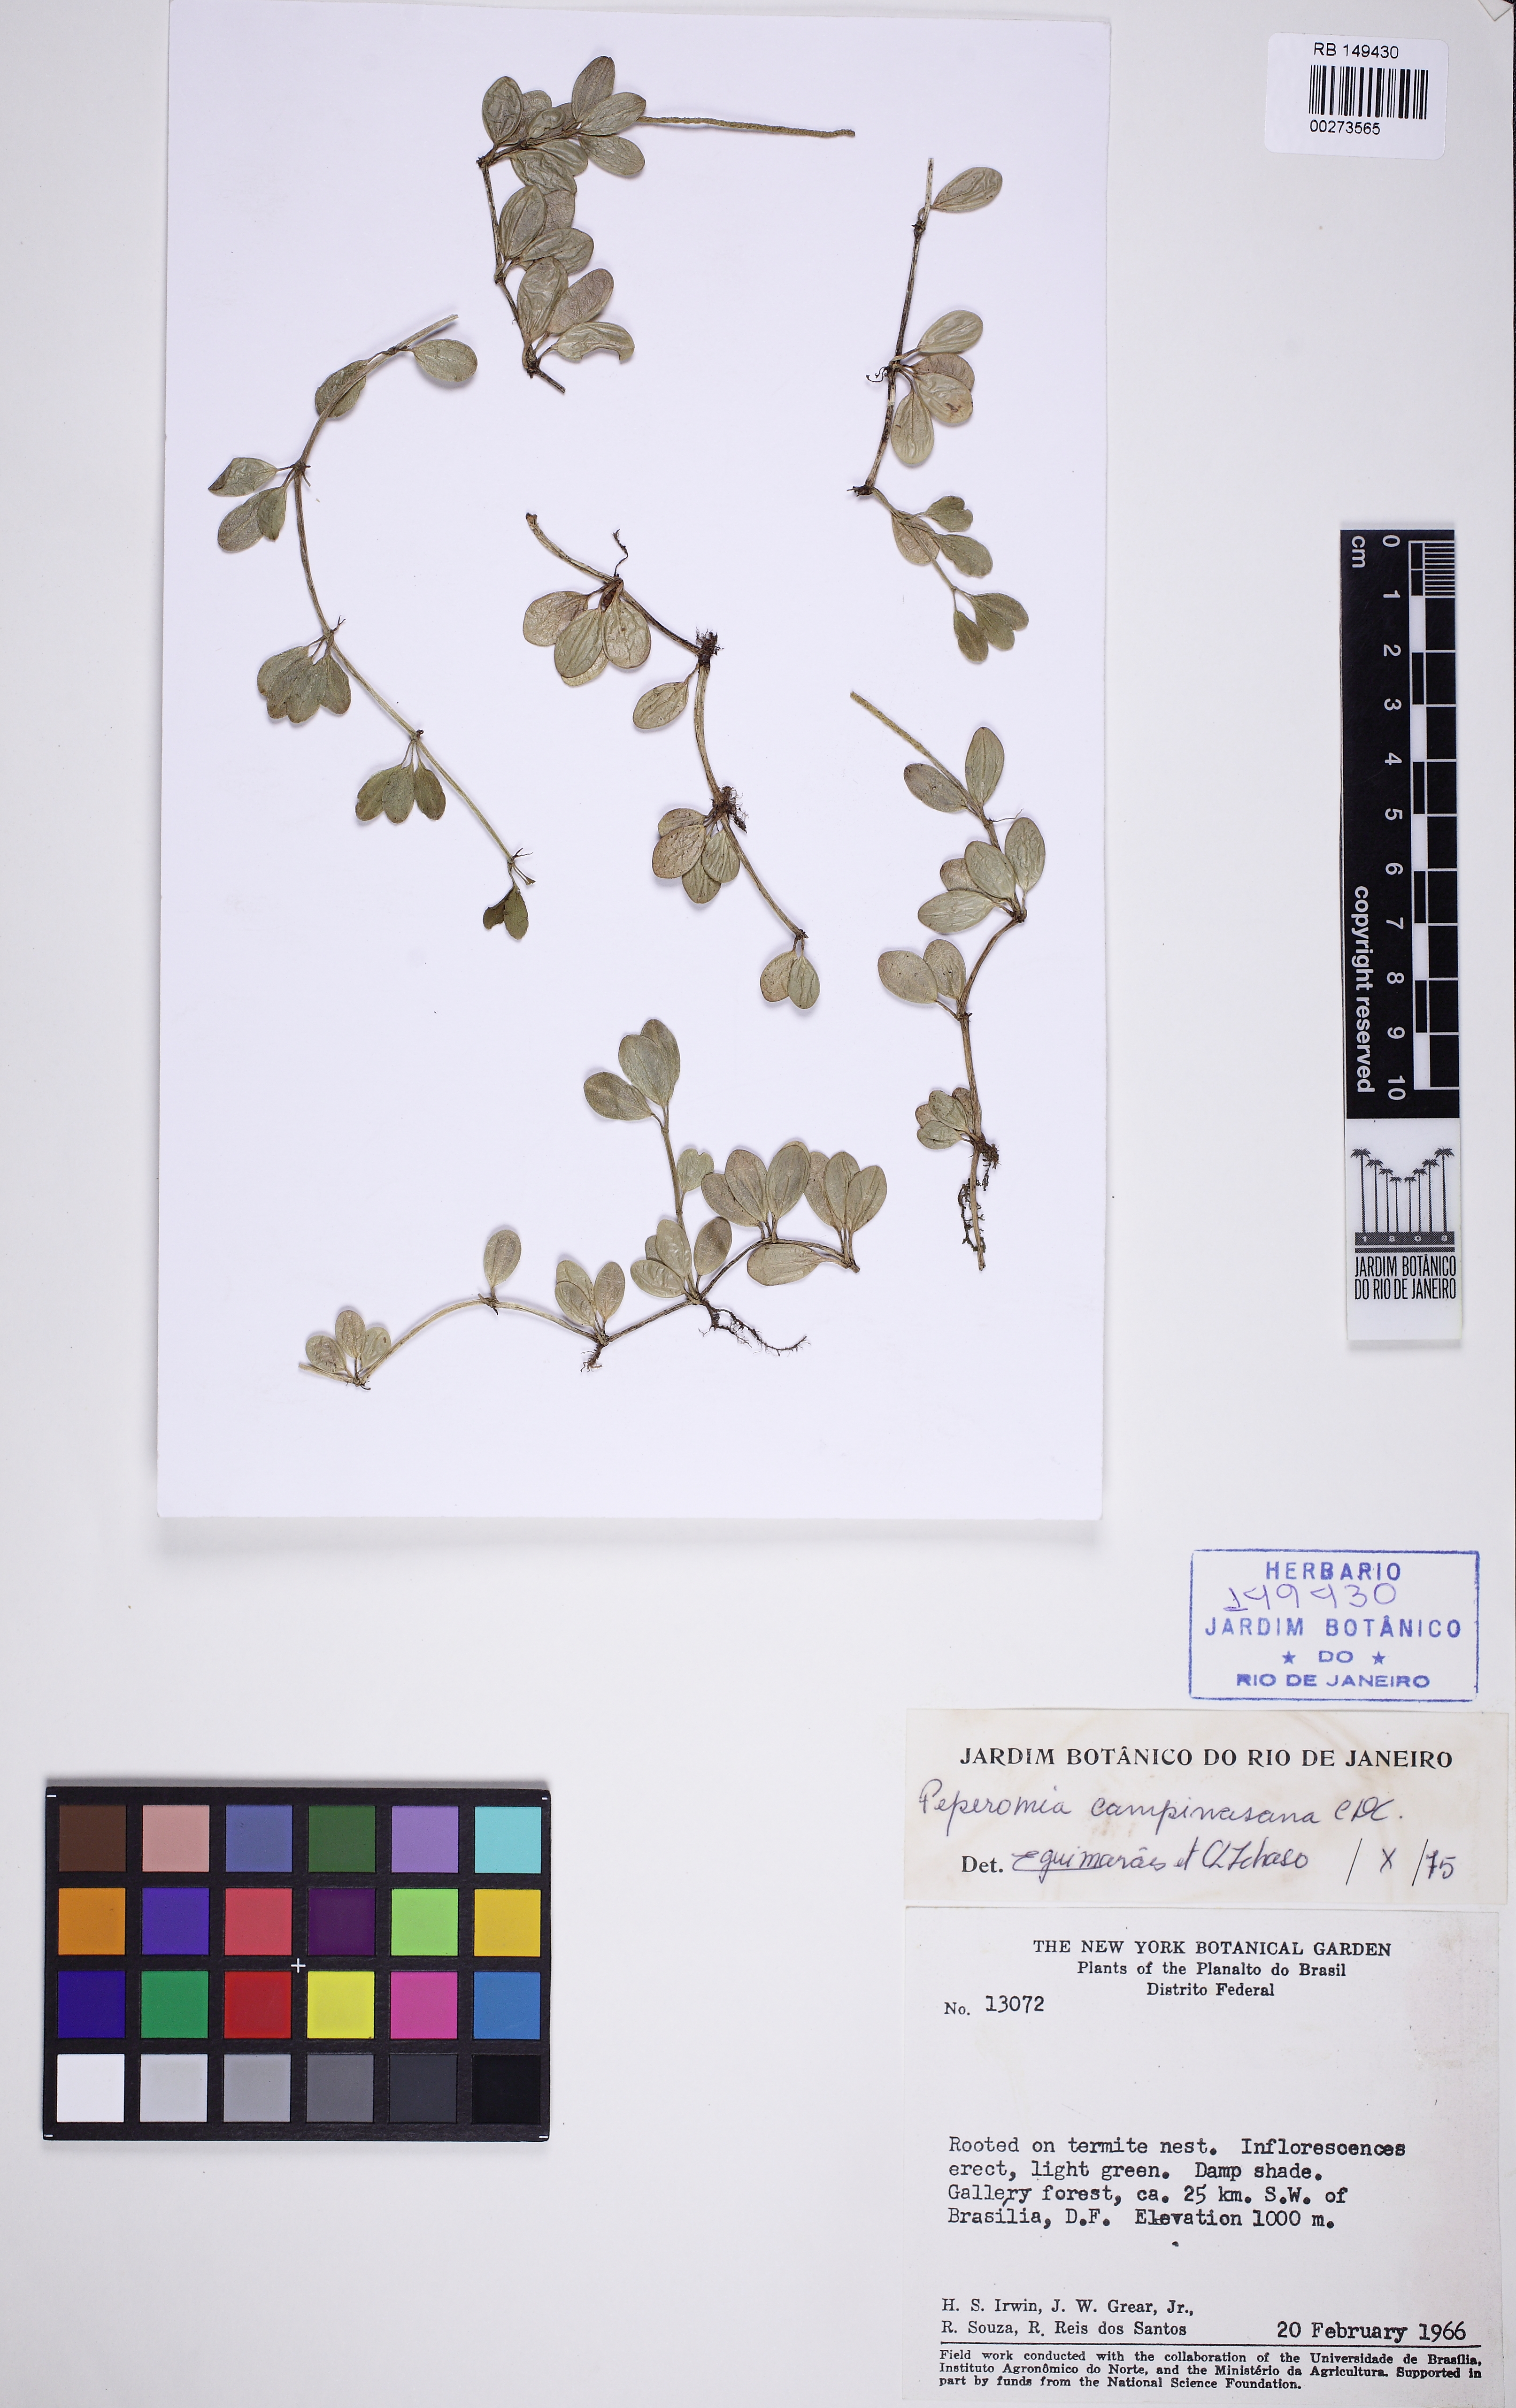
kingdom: Plantae
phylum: Tracheophyta
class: Magnoliopsida
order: Piperales
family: Piperaceae
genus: Peperomia
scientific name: Peperomia campinasana
